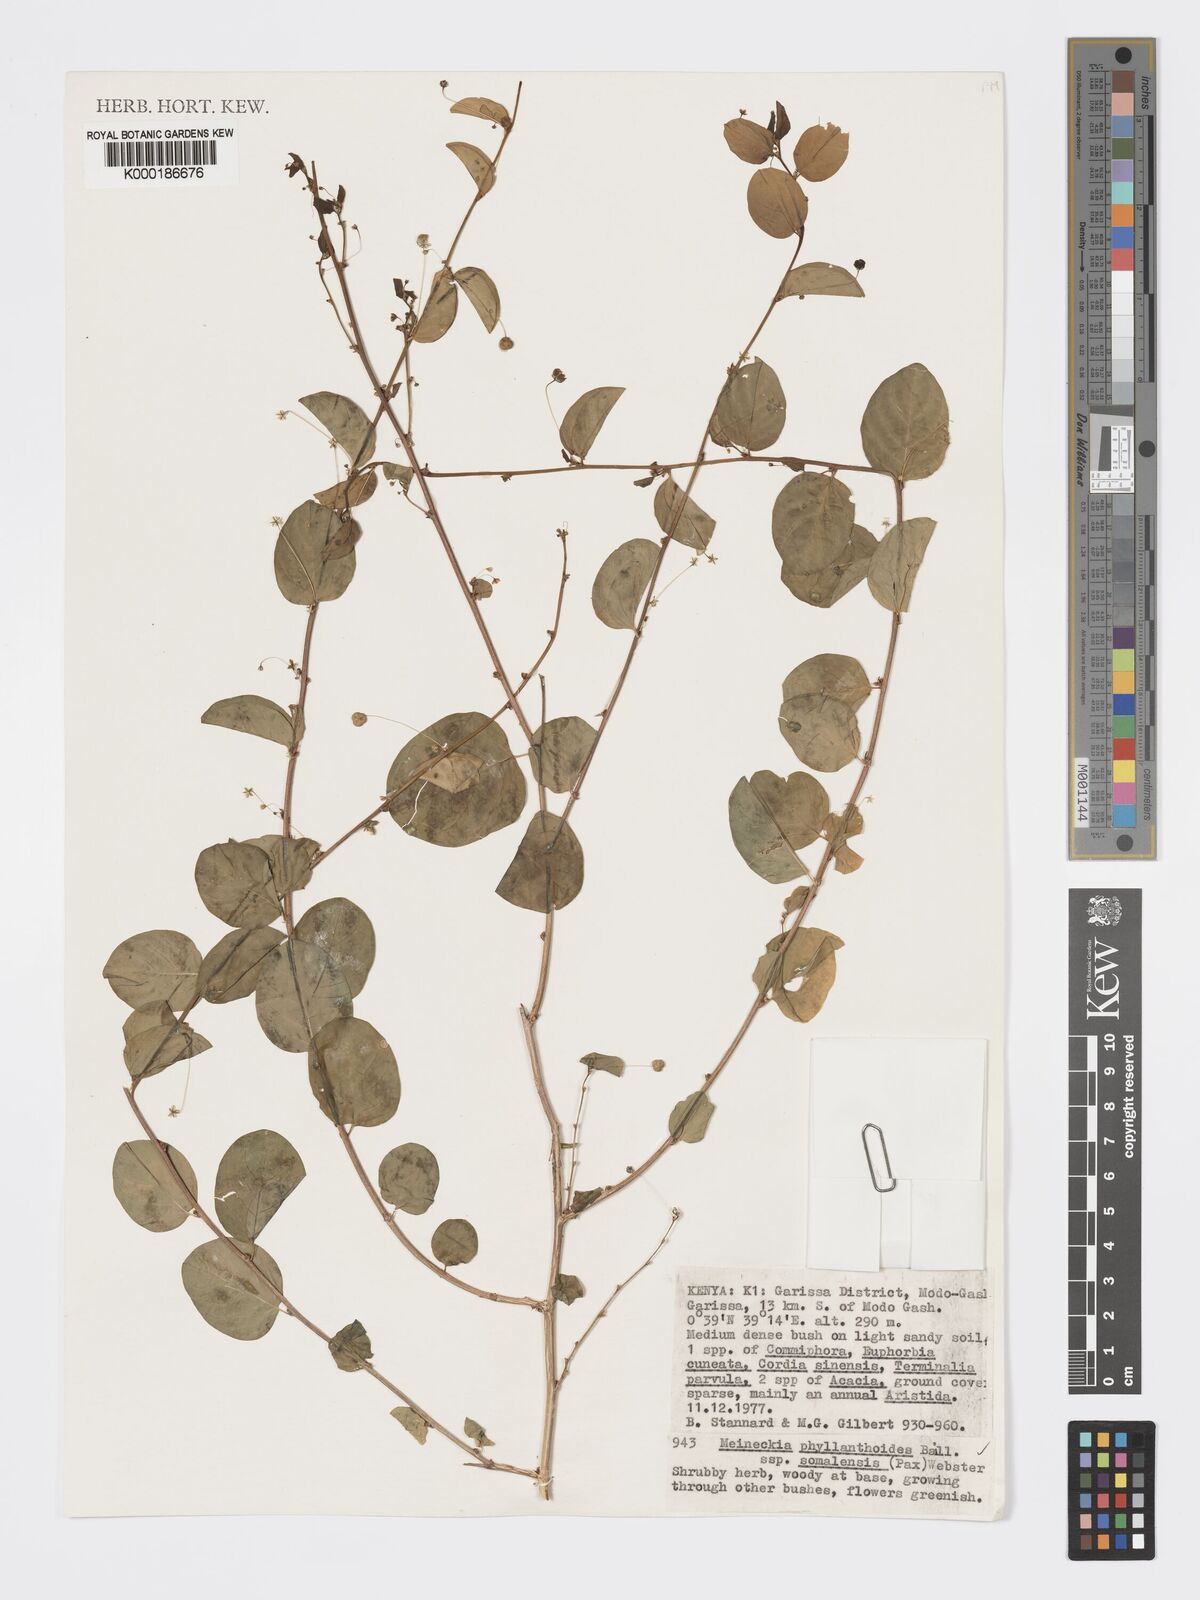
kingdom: Plantae
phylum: Tracheophyta
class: Magnoliopsida
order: Malpighiales
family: Phyllanthaceae
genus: Meineckia
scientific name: Meineckia phyllanthoides
